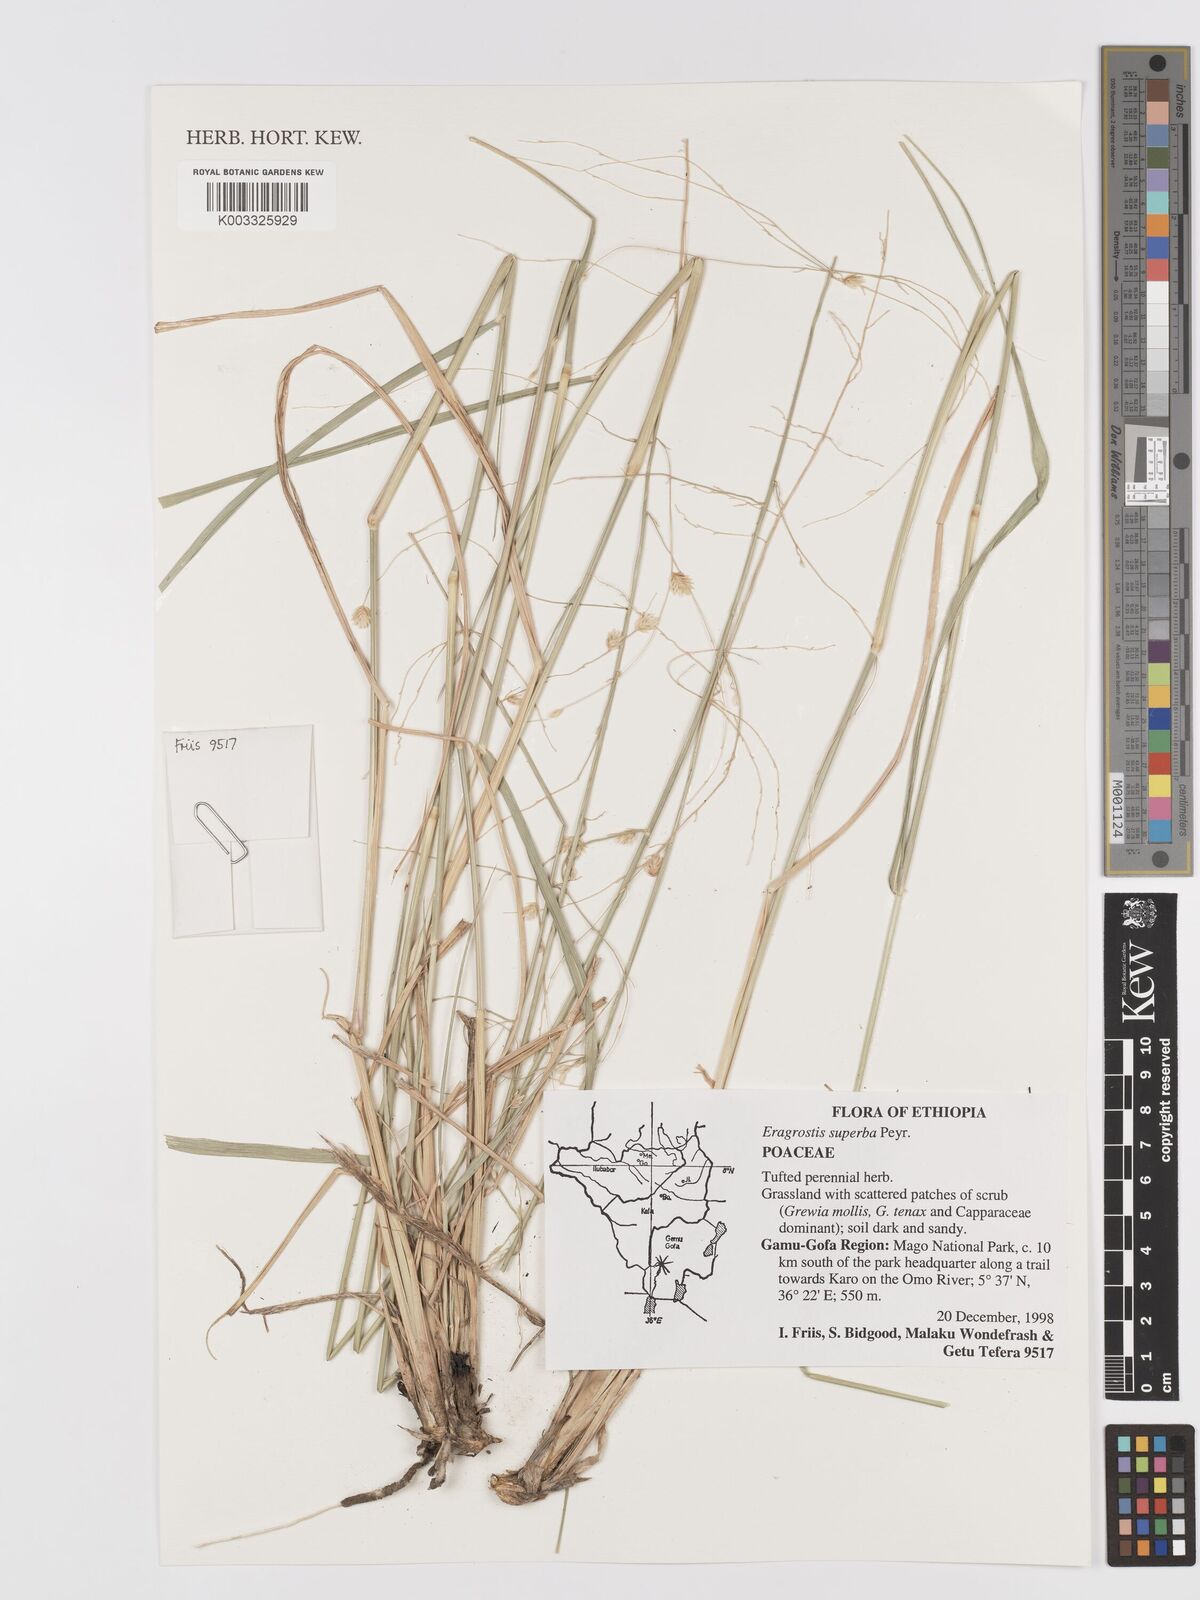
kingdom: Plantae
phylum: Tracheophyta
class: Liliopsida
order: Poales
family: Poaceae
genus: Eragrostis
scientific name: Eragrostis superba
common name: Wilman lovegrass
